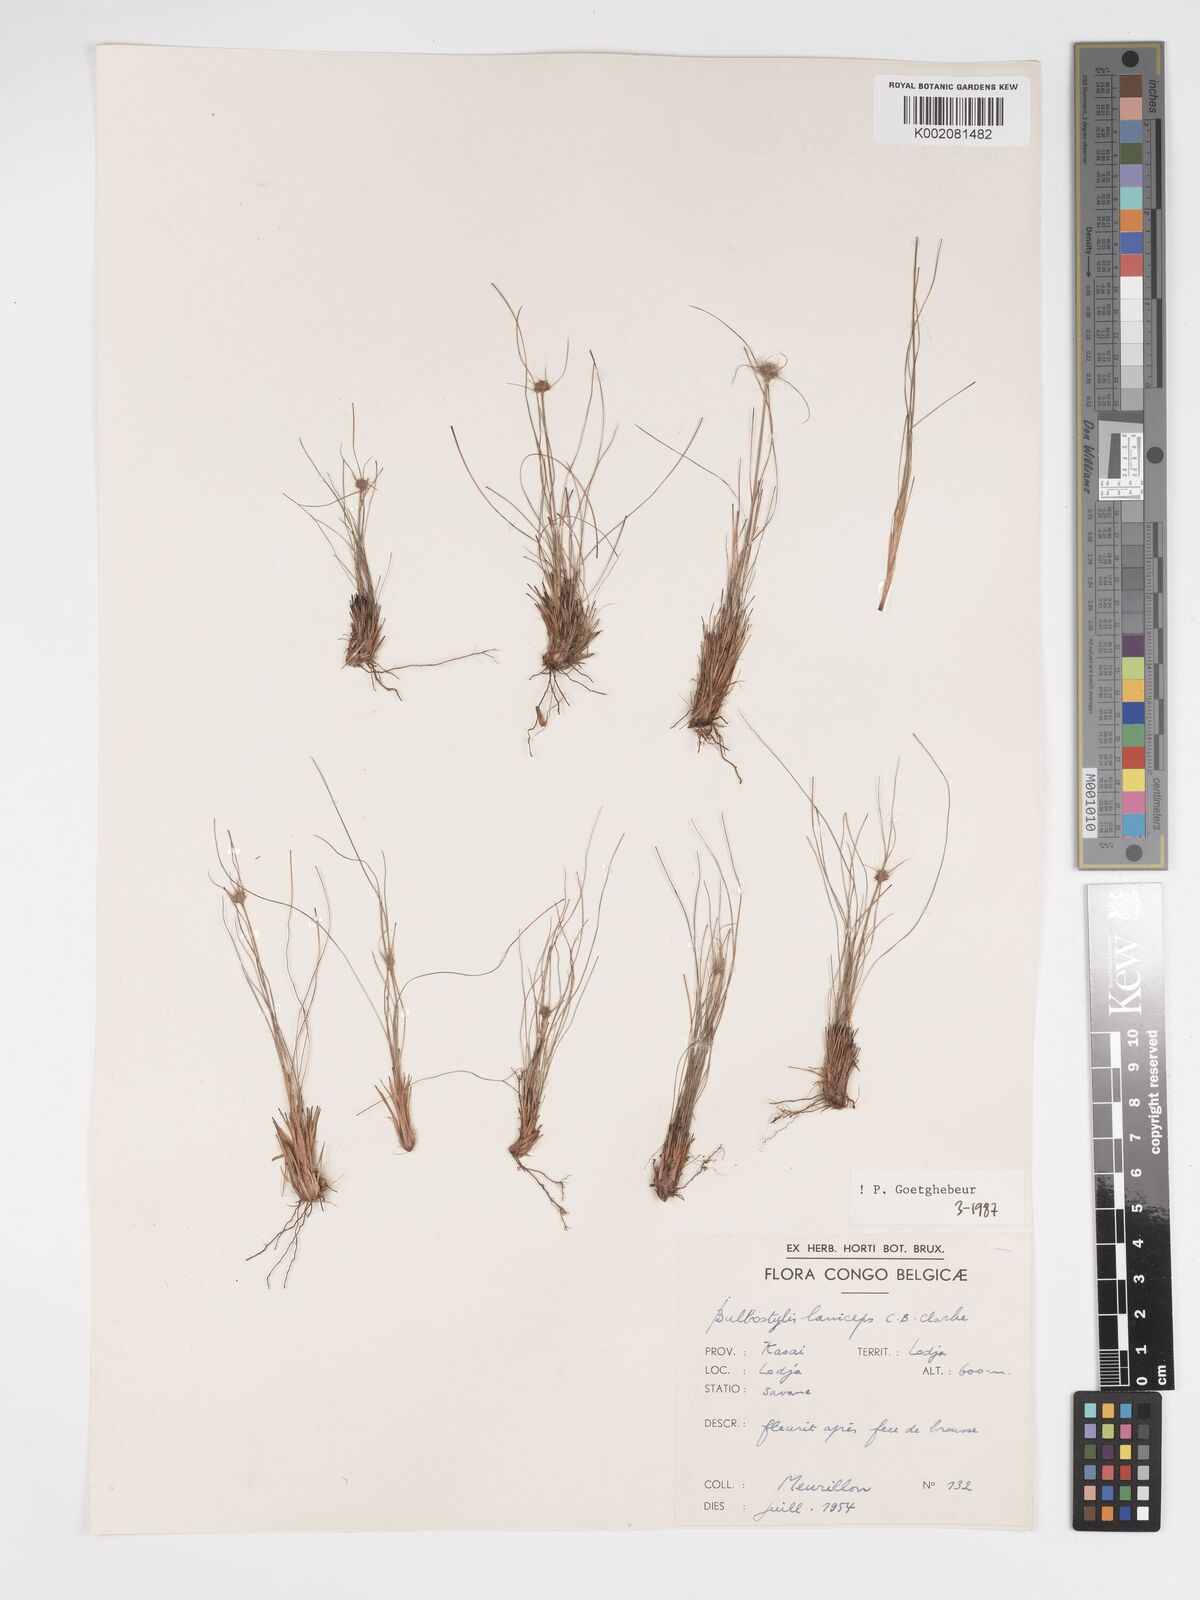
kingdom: Plantae
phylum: Tracheophyta
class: Liliopsida
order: Poales
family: Cyperaceae
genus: Bulbostylis
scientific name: Bulbostylis laniceps
